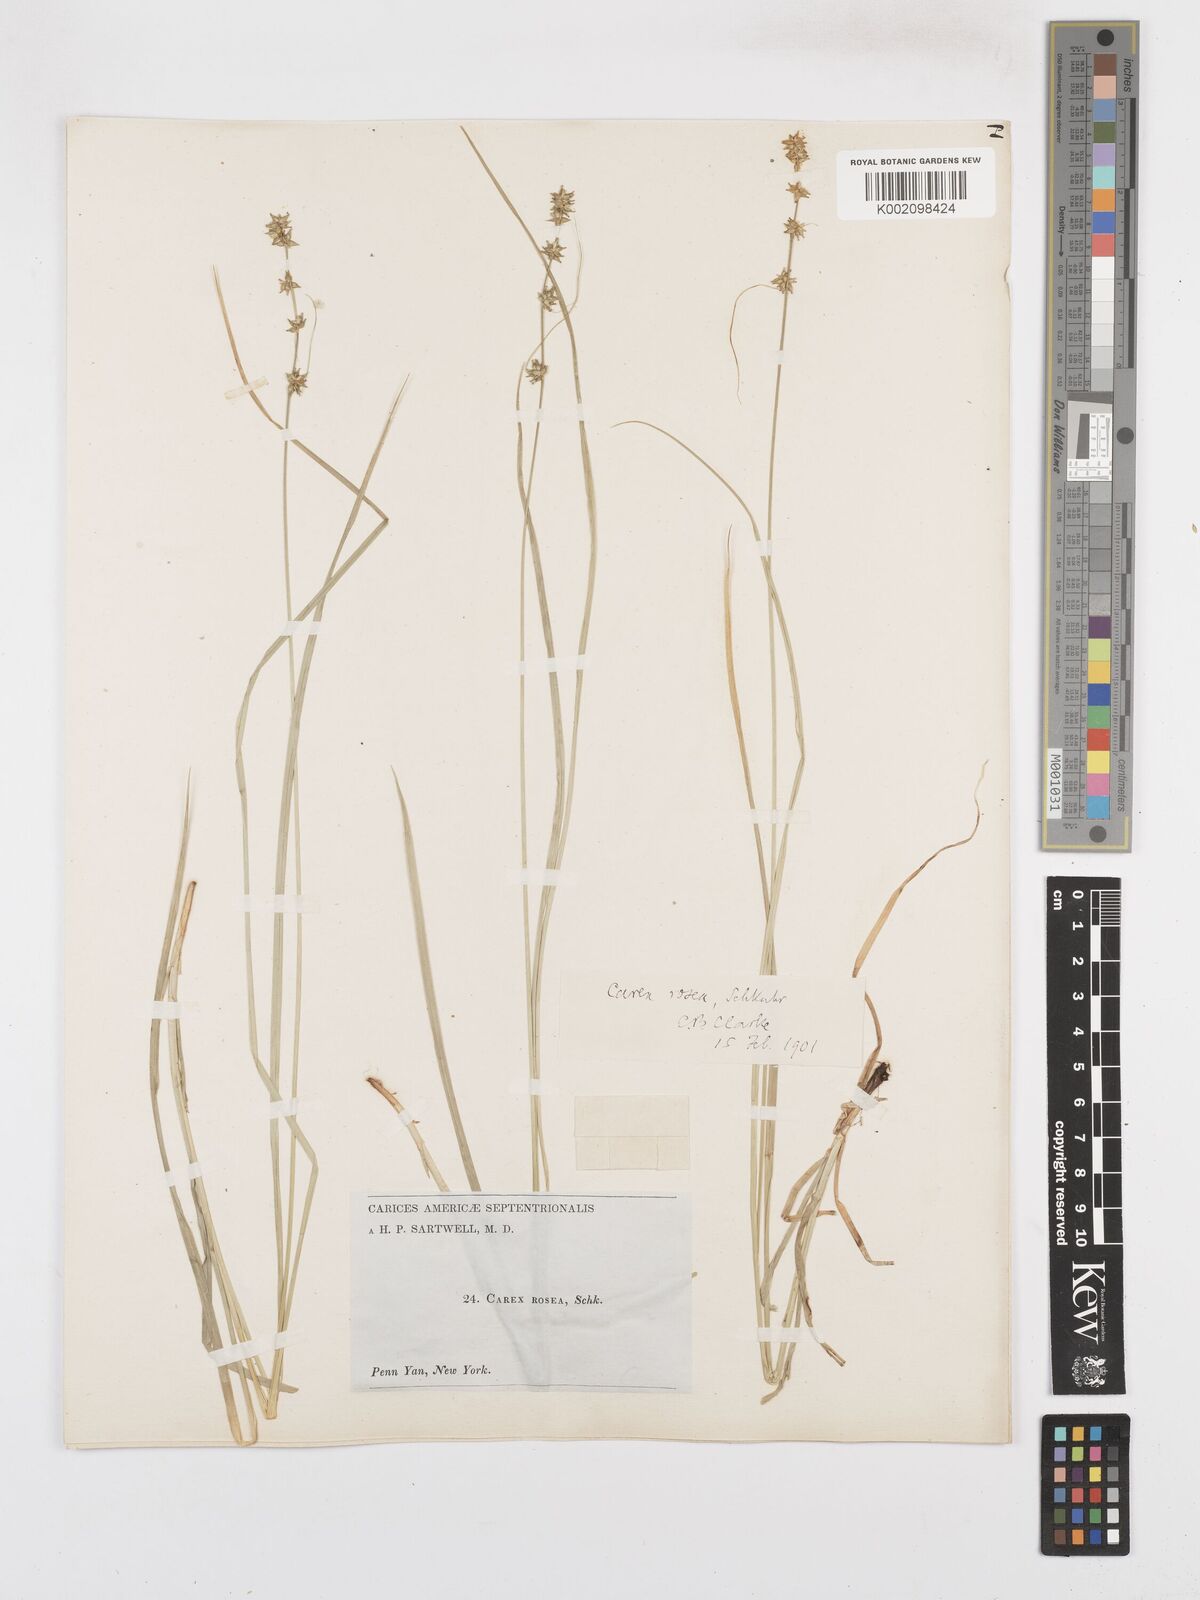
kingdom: Plantae
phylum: Tracheophyta
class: Liliopsida
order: Poales
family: Cyperaceae
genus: Carex
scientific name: Carex
